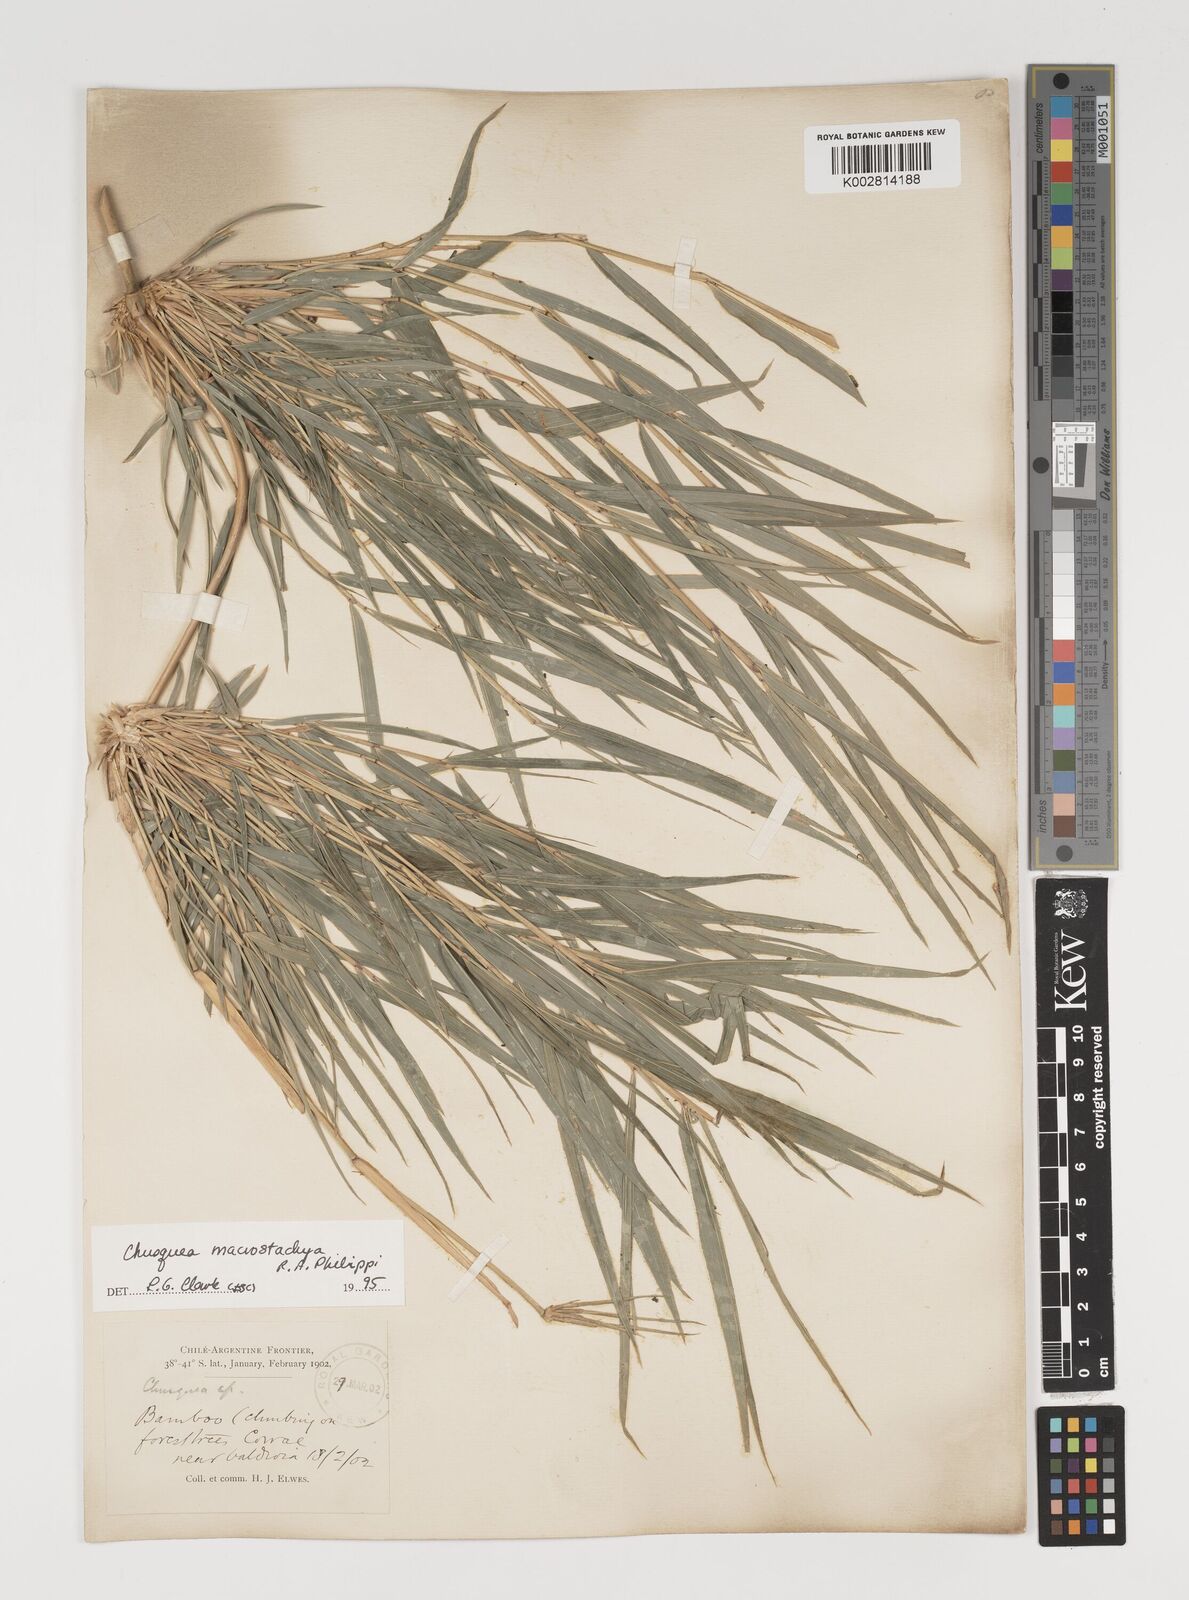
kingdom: Plantae
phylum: Tracheophyta
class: Liliopsida
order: Poales
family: Poaceae
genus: Chusquea
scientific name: Chusquea macrostachya
